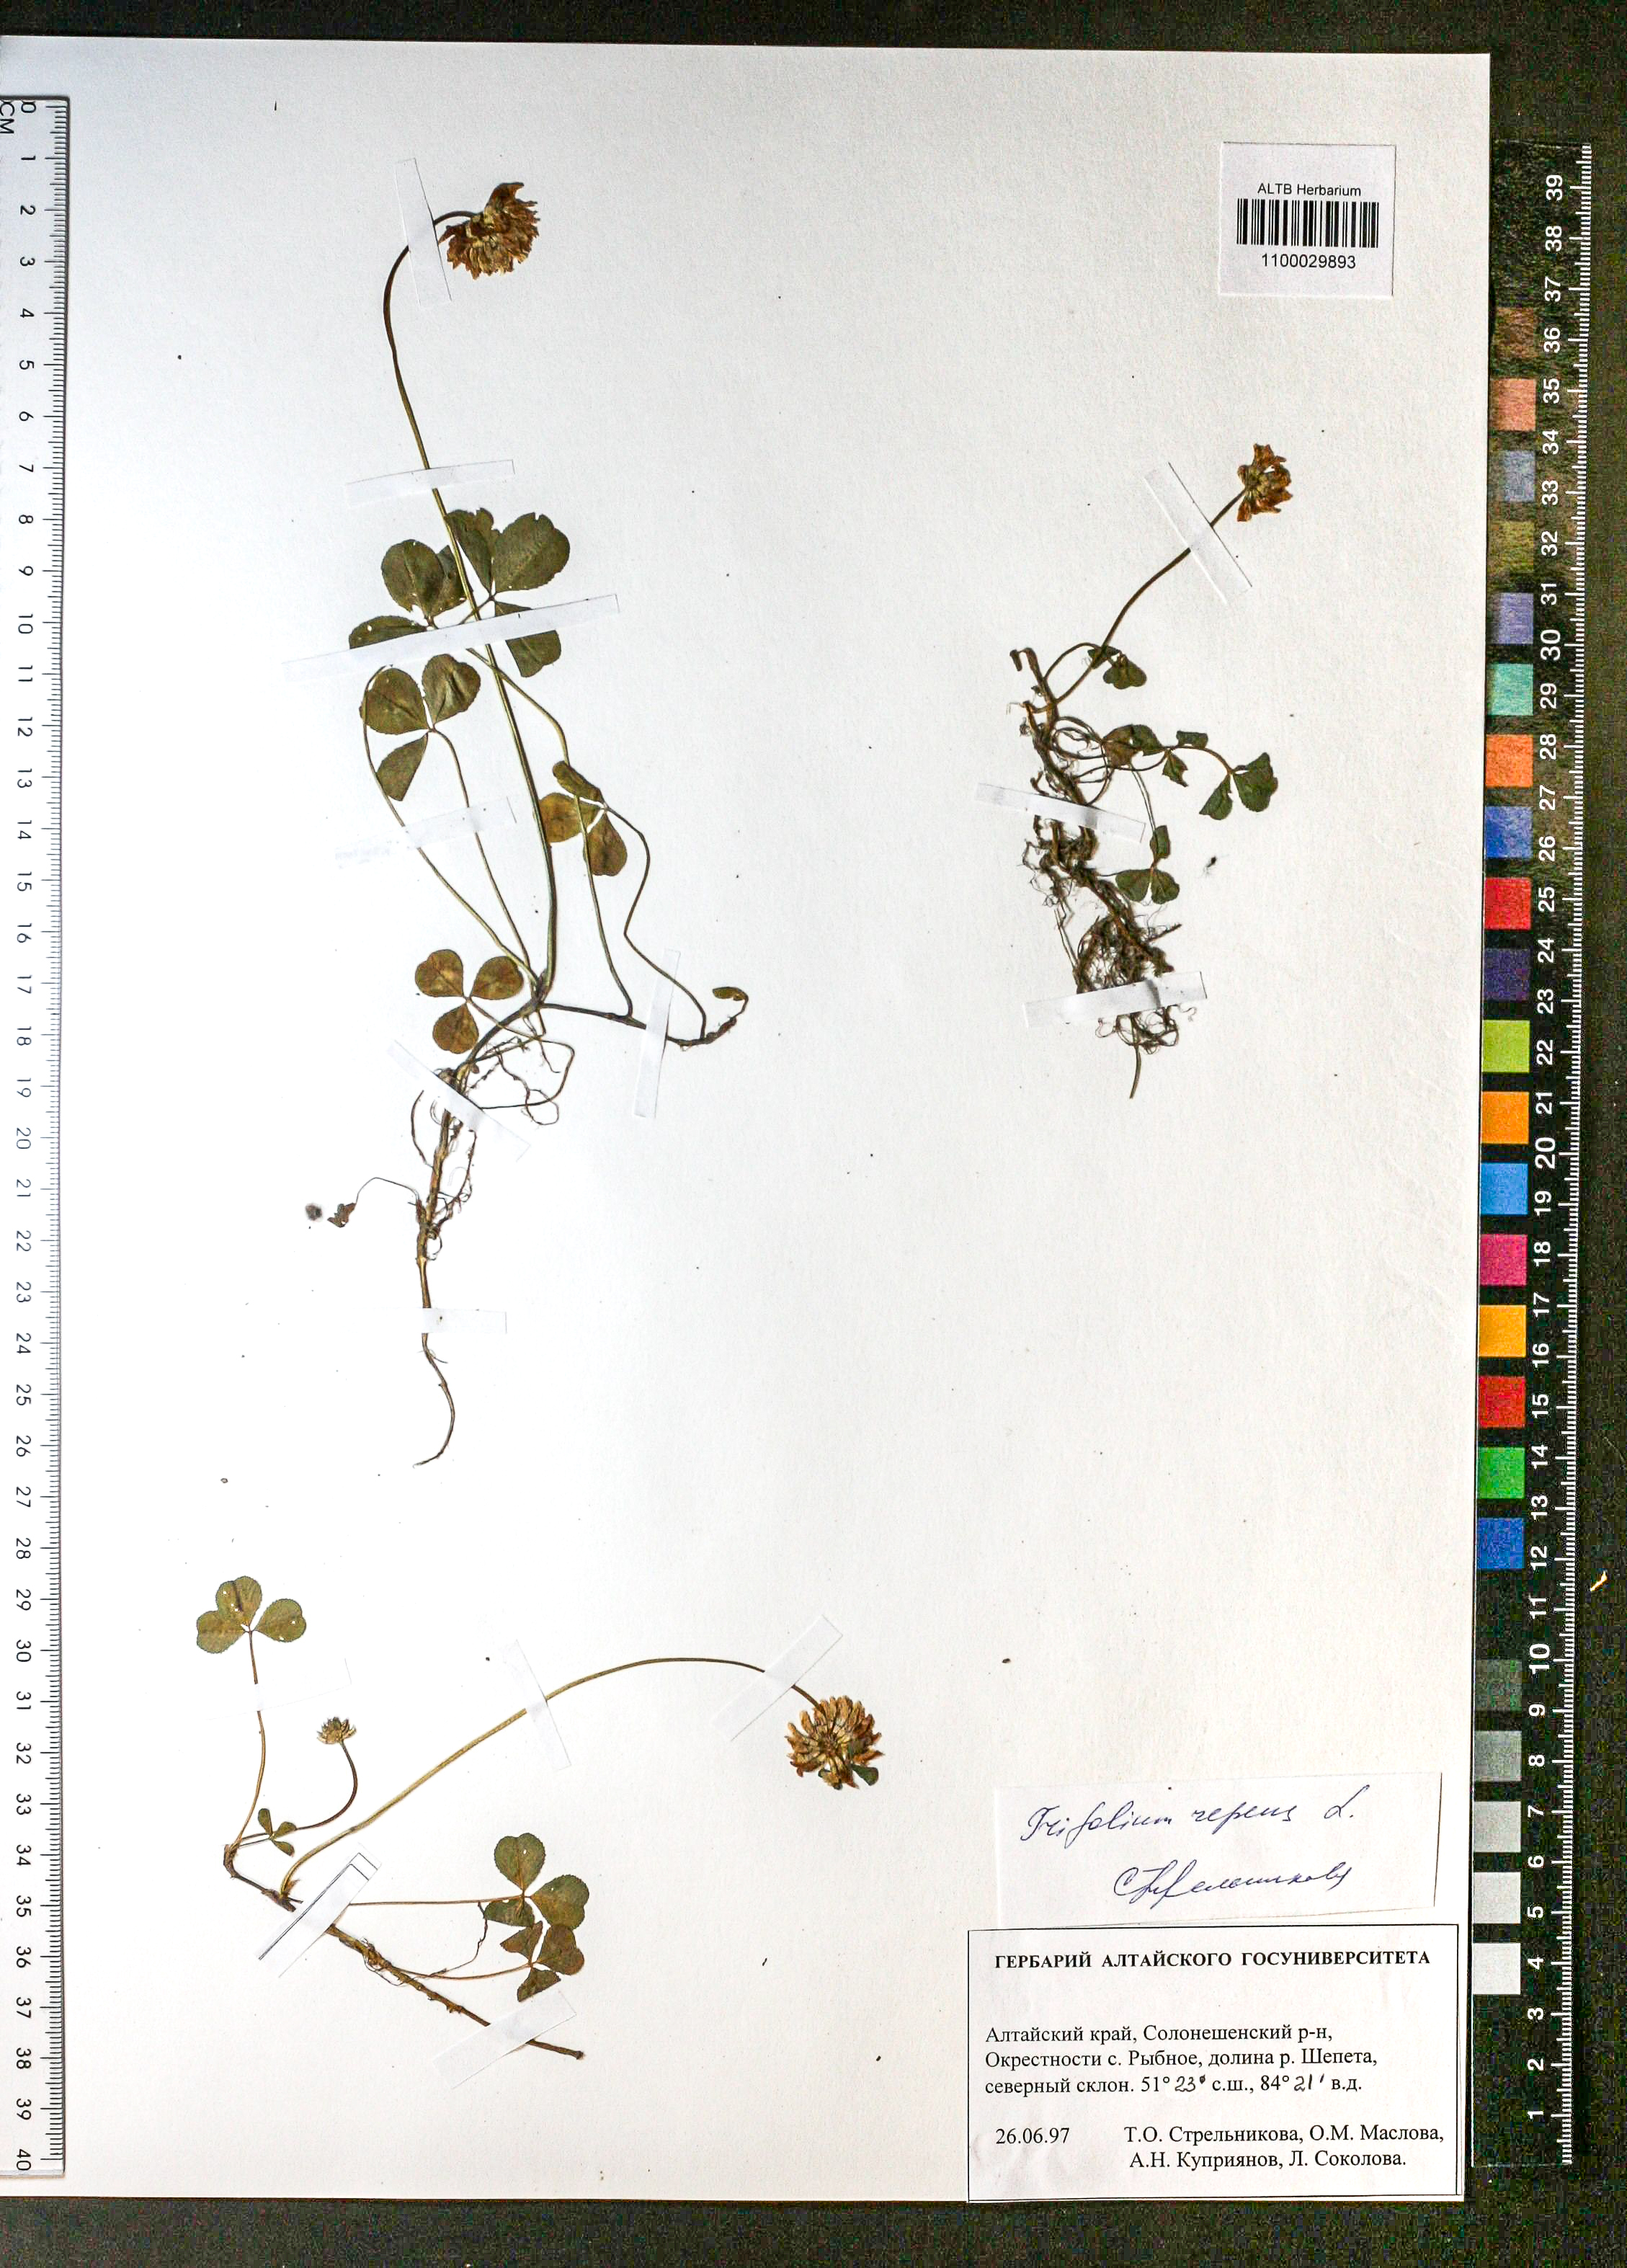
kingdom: Plantae
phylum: Tracheophyta
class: Magnoliopsida
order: Fabales
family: Fabaceae
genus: Trifolium
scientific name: Trifolium repens
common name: White clover
